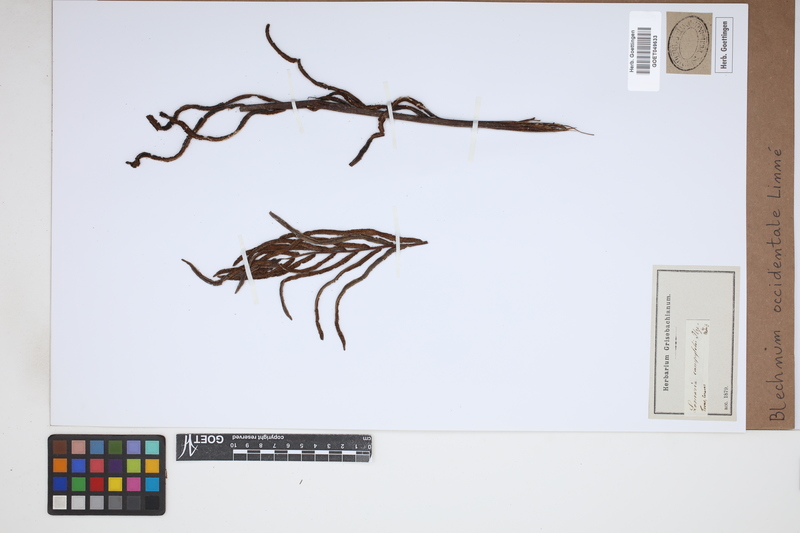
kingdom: Plantae
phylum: Tracheophyta
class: Polypodiopsida
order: Polypodiales
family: Blechnaceae
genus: Blechnum
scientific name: Blechnum occidentale
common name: Hammock fern
